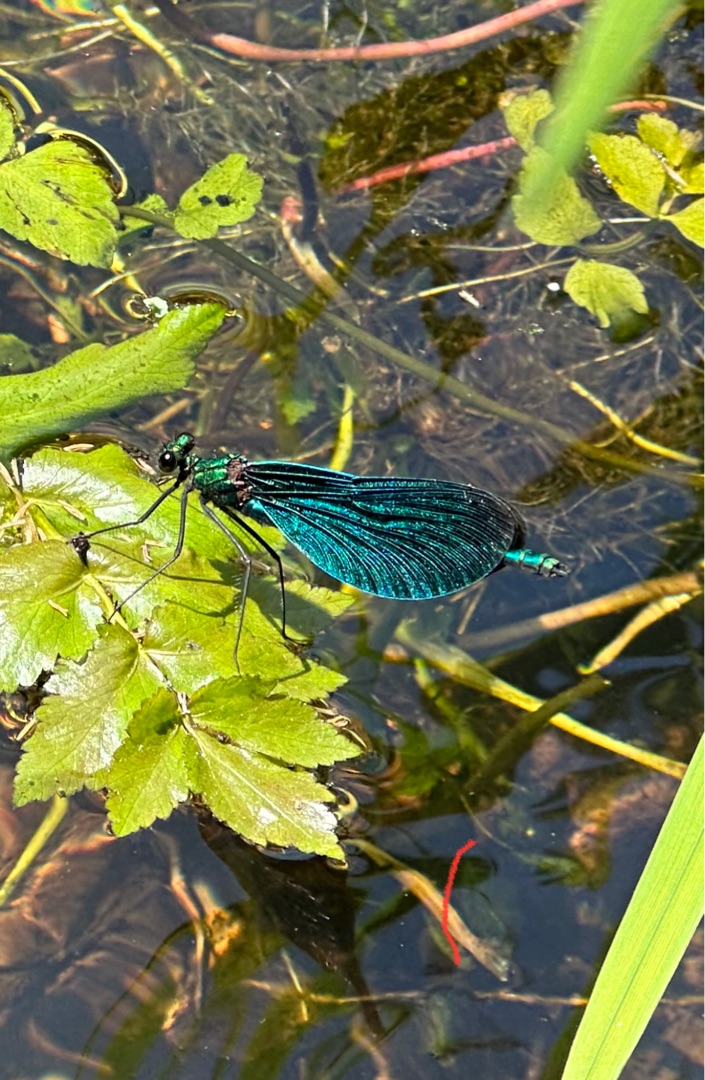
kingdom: Animalia
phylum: Arthropoda
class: Insecta
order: Odonata
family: Calopterygidae
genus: Calopteryx
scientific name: Calopteryx virgo
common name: Blåvinget pragtvandnymfe
